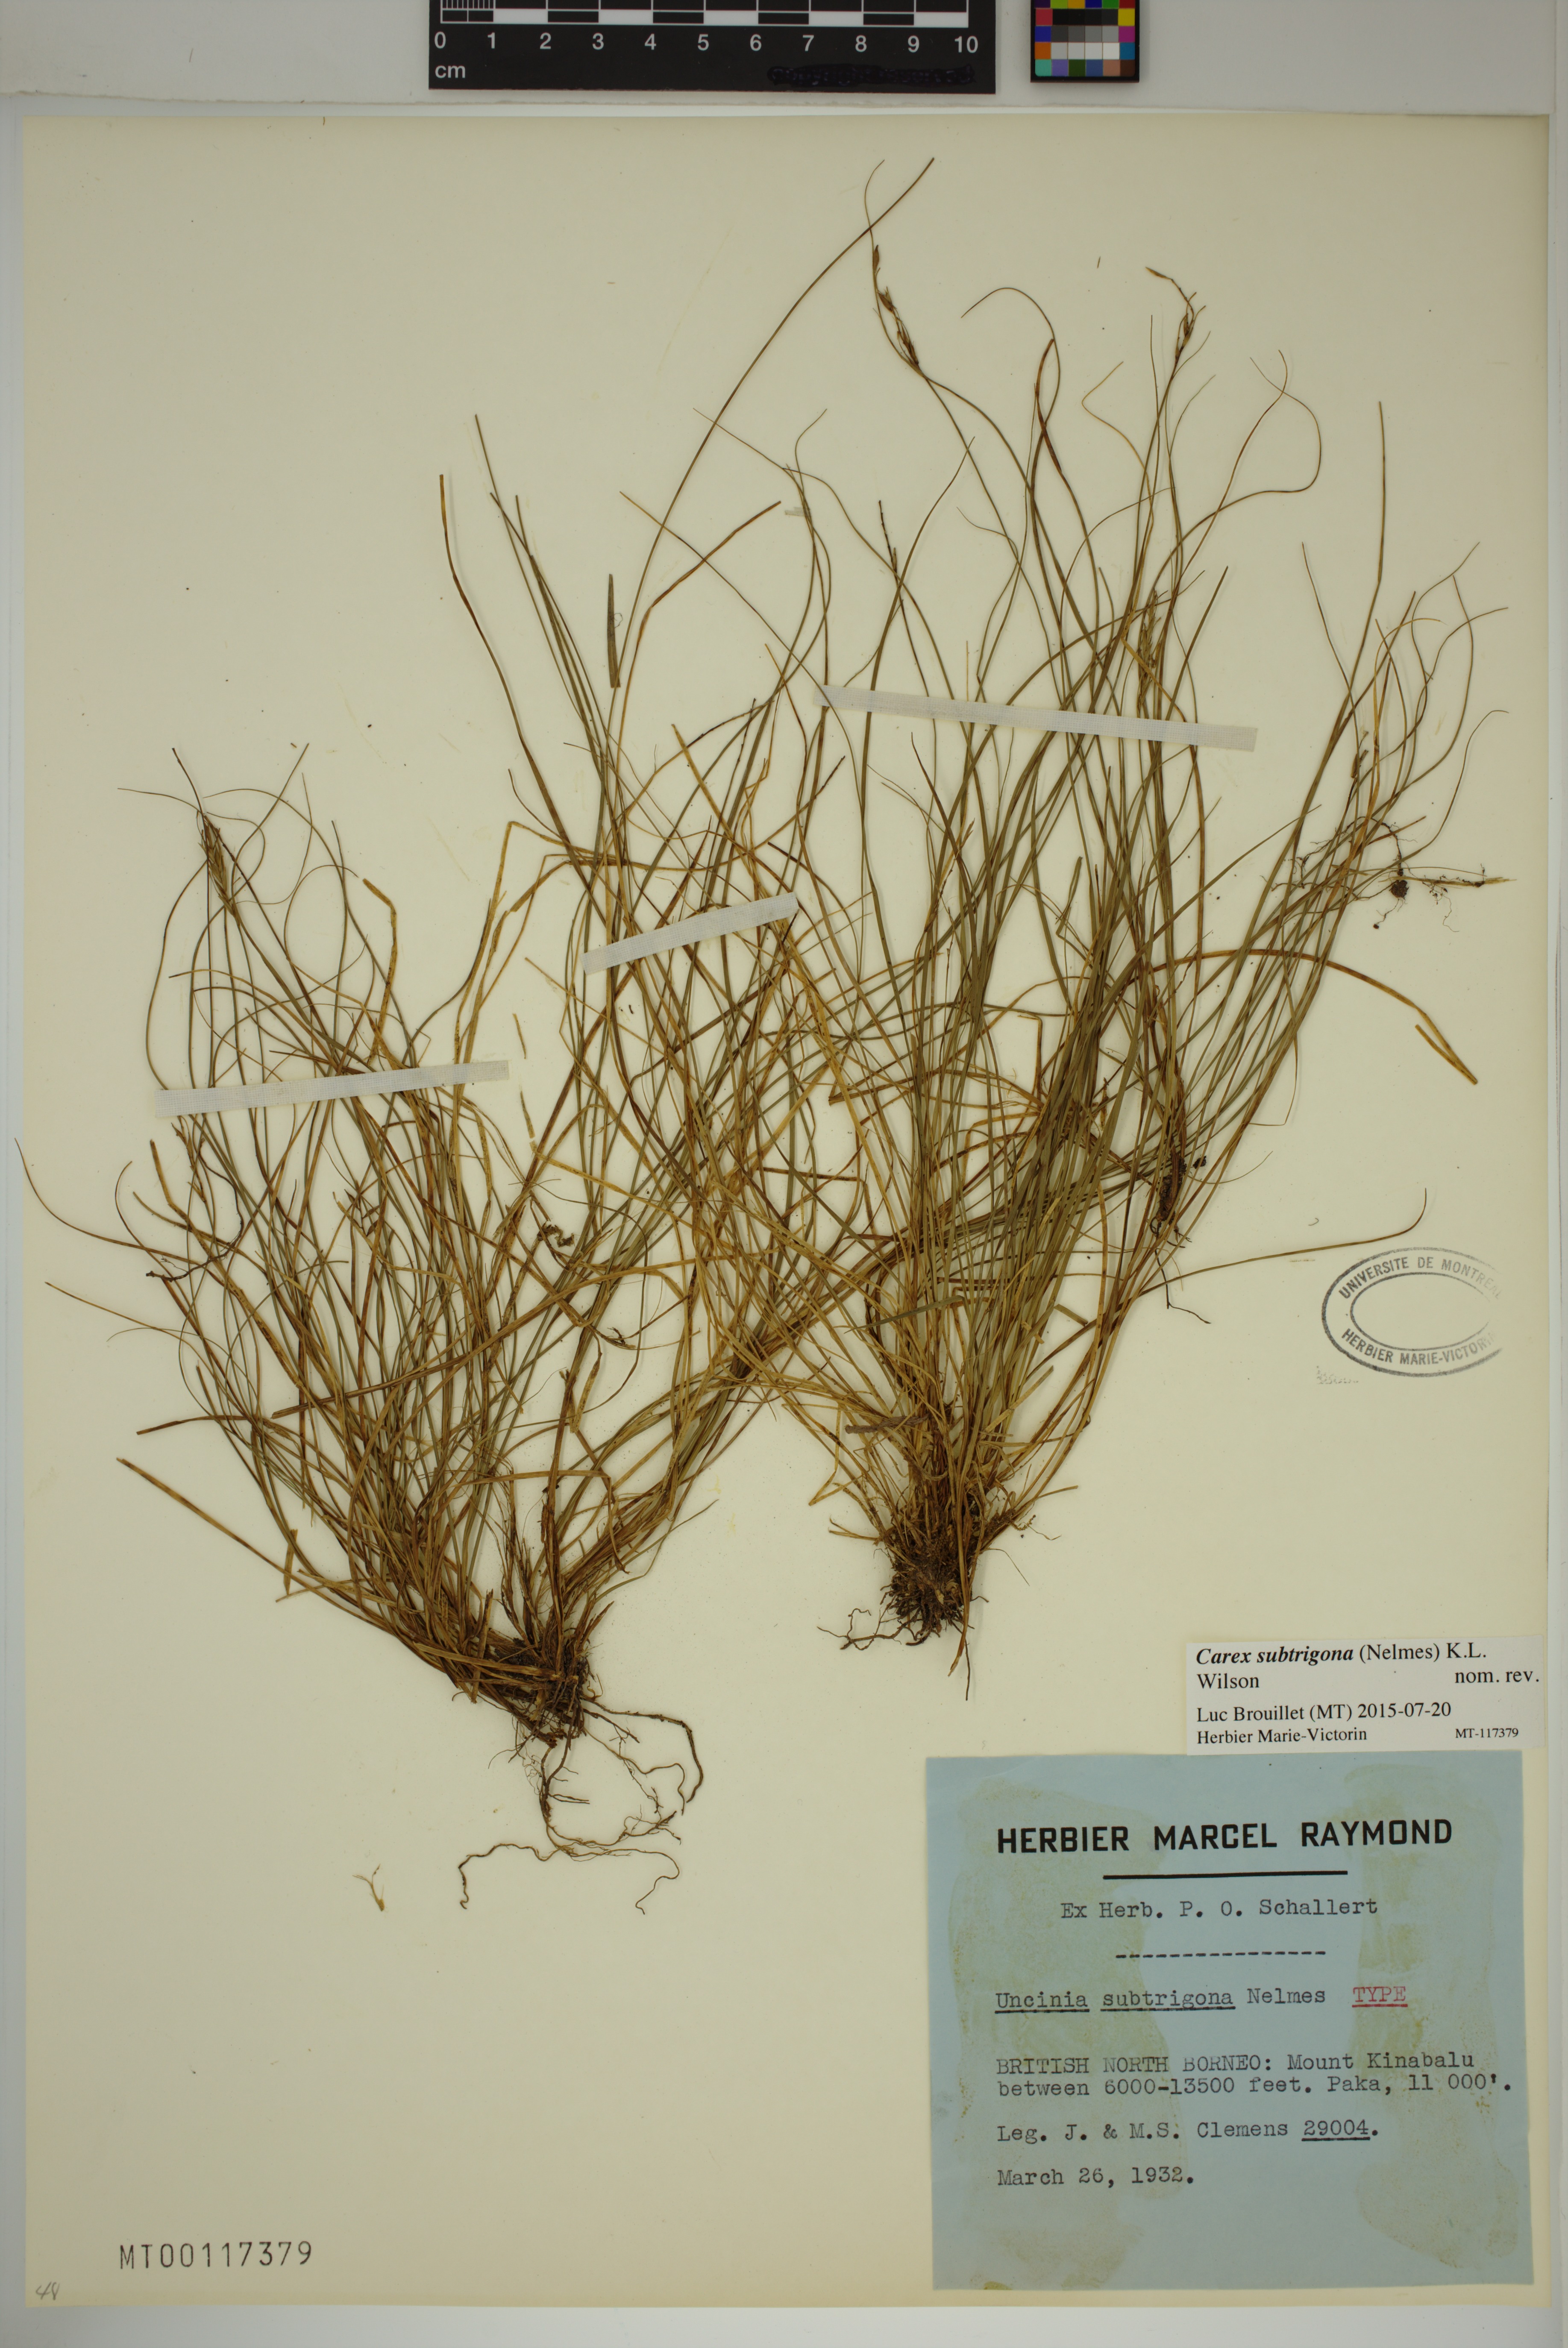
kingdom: Plantae
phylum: Tracheophyta
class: Liliopsida
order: Poales
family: Cyperaceae
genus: Carex
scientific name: Carex subtrigona
